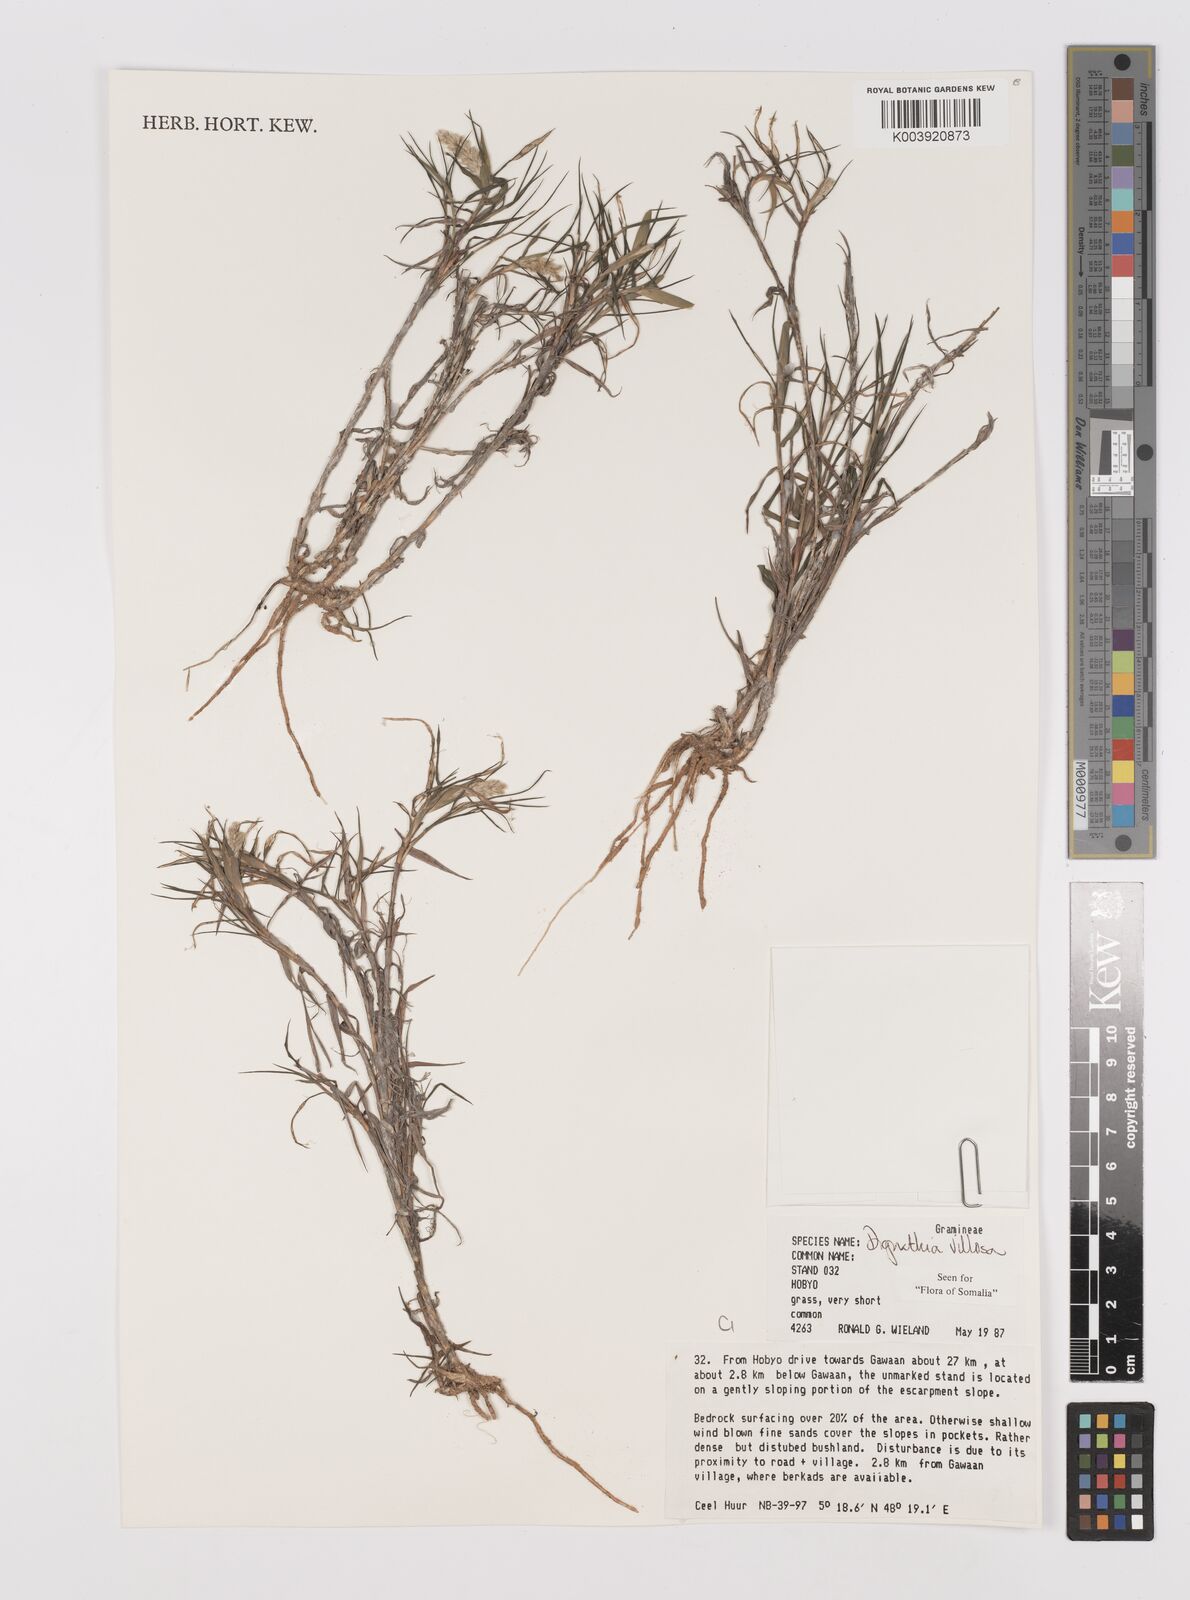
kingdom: Plantae
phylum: Tracheophyta
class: Liliopsida
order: Poales
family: Poaceae
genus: Dignathia
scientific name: Dignathia villosa
